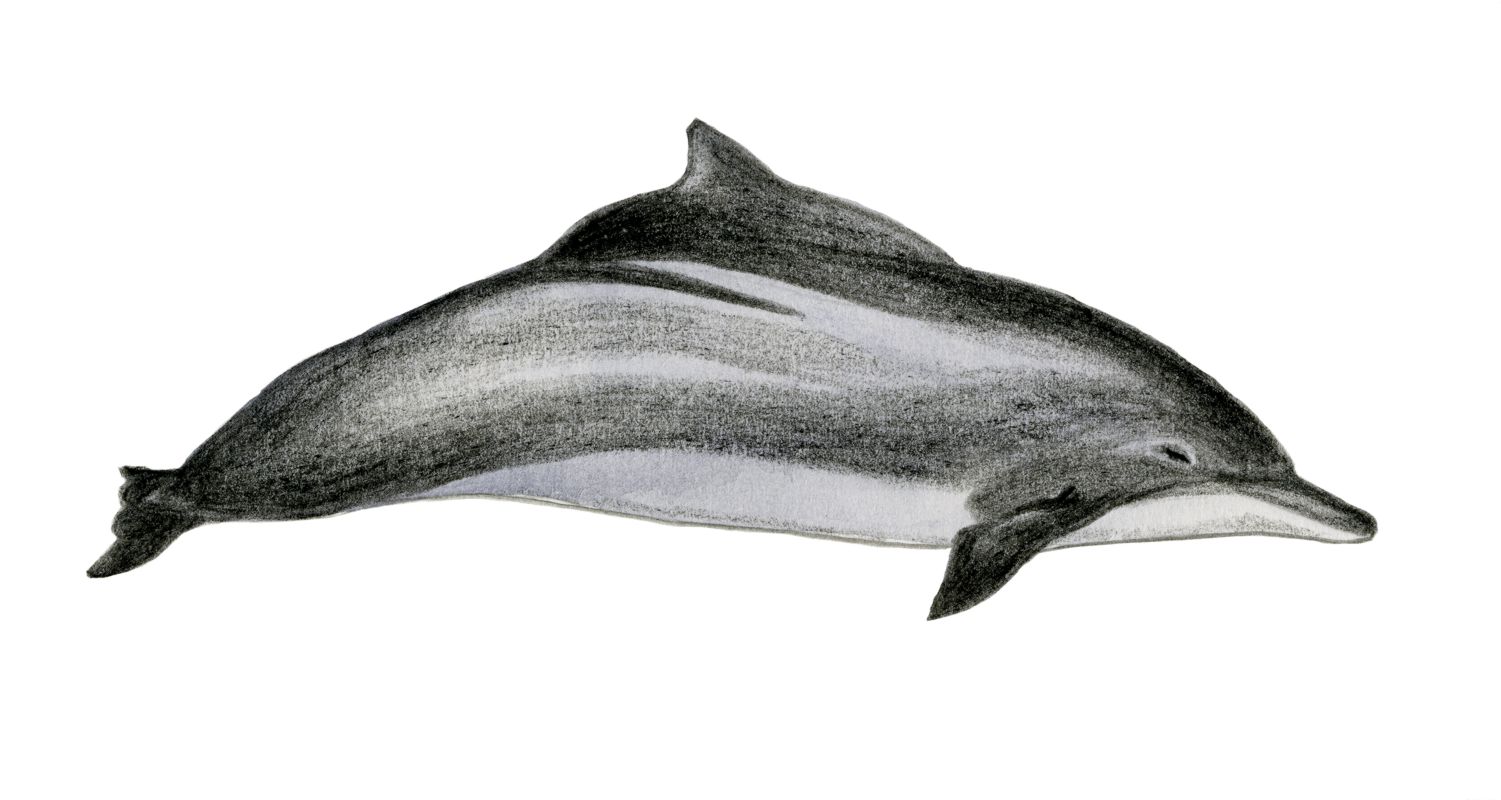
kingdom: Animalia
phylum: Chordata
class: Mammalia
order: Cetacea
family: Delphinidae
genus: Sousa
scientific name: Sousa chinensis
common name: Chinese white dolphin
